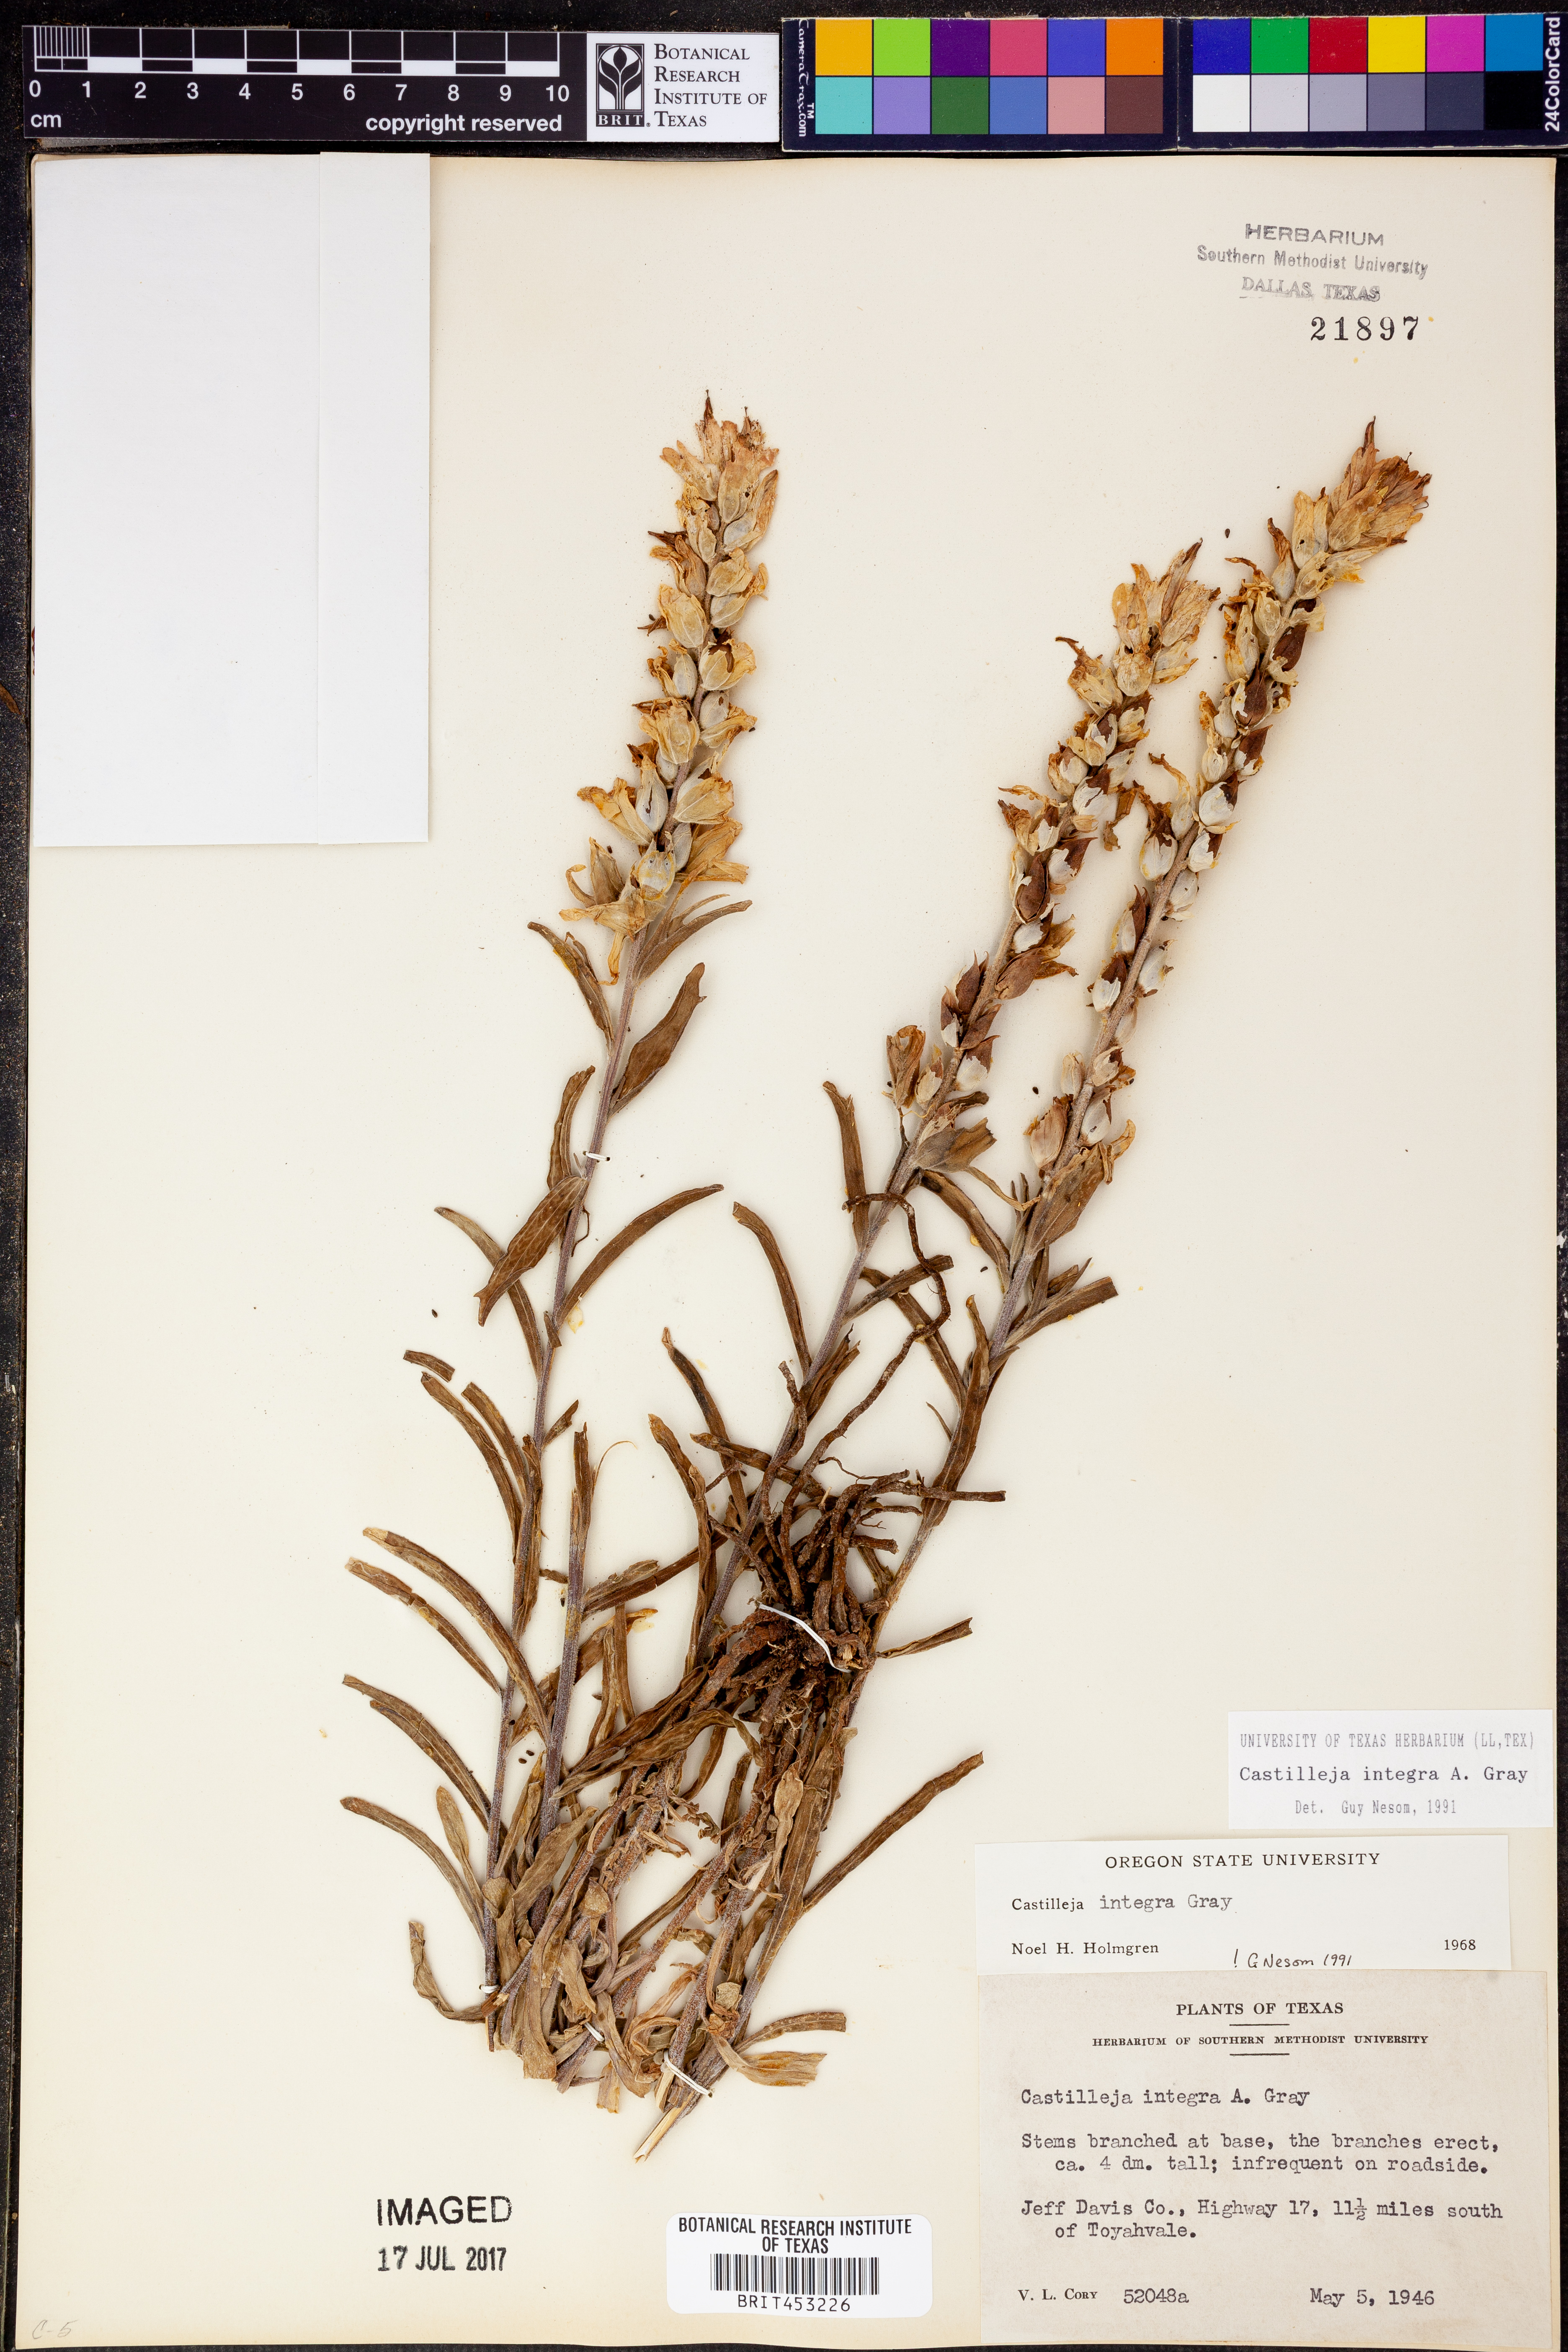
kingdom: Plantae
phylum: Tracheophyta
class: Magnoliopsida
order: Lamiales
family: Orobanchaceae
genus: Castilleja
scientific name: Castilleja integra
